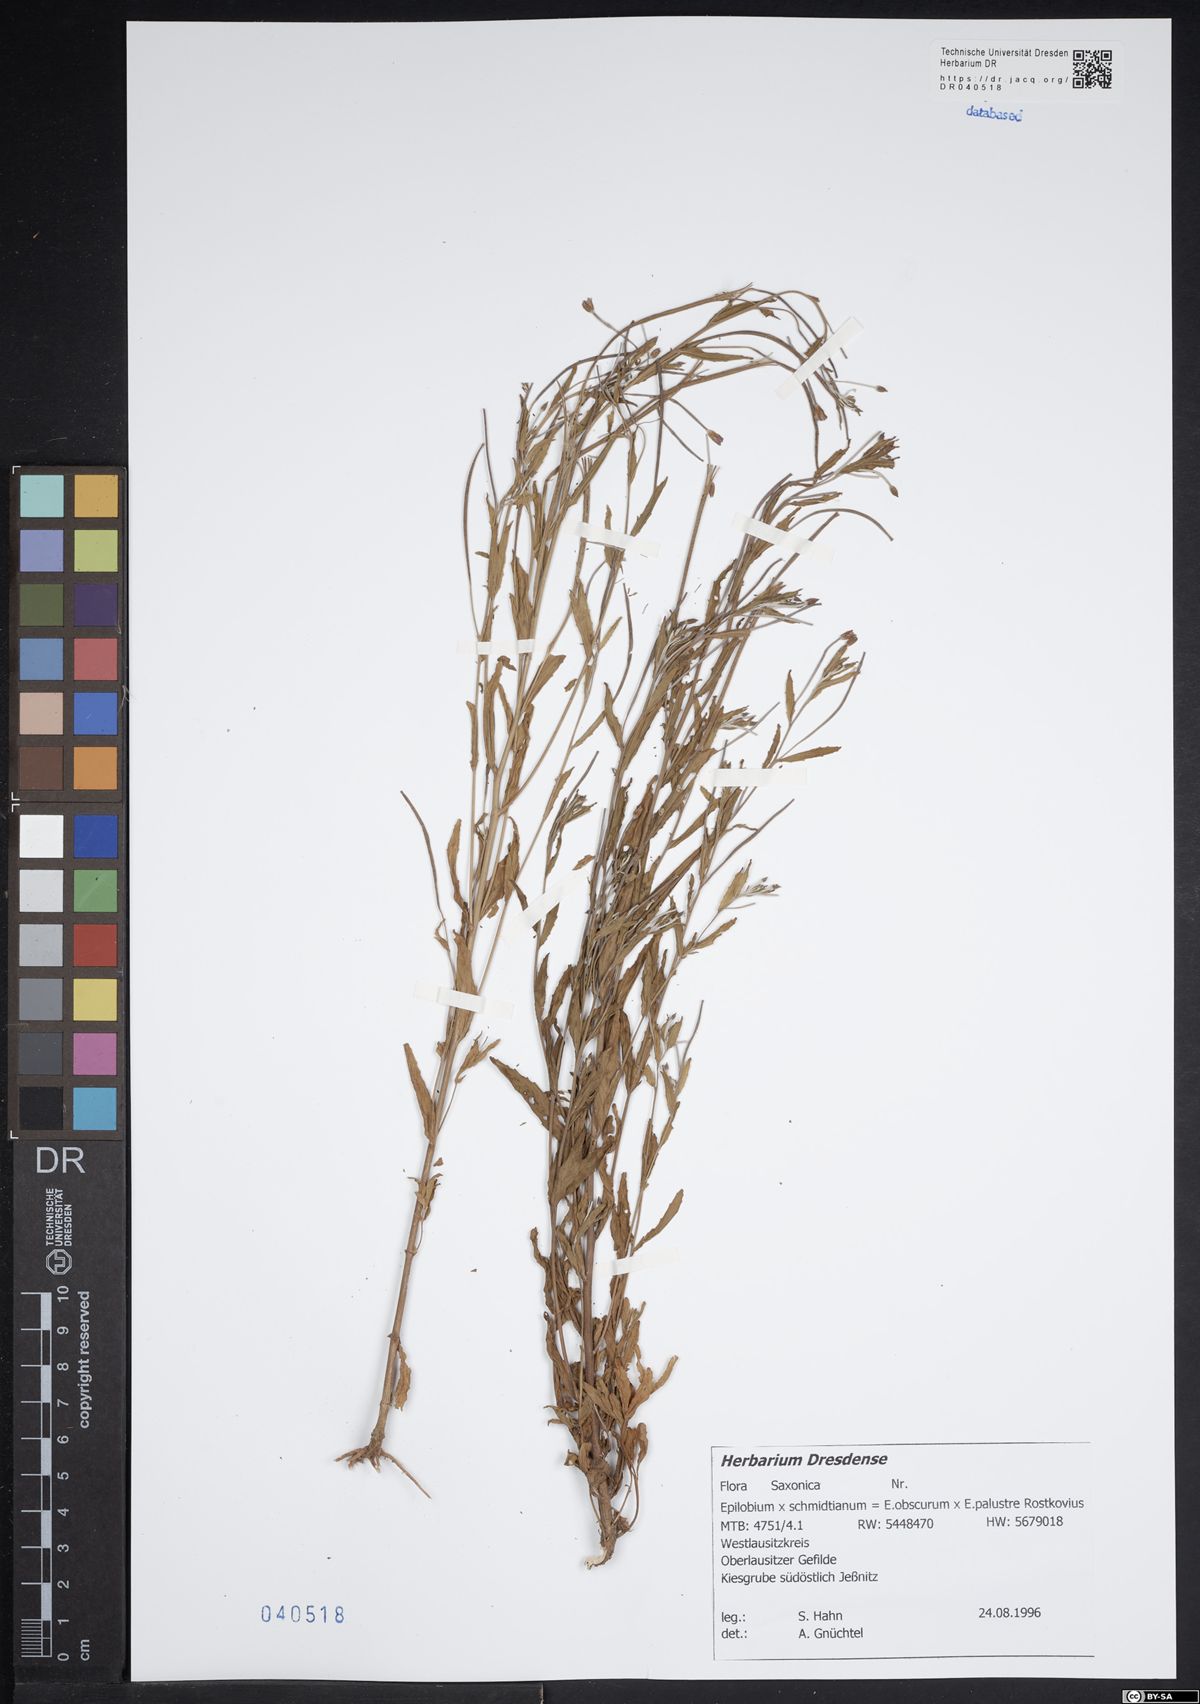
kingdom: Plantae
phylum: Tracheophyta
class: Magnoliopsida
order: Myrtales
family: Onagraceae
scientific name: Onagraceae
